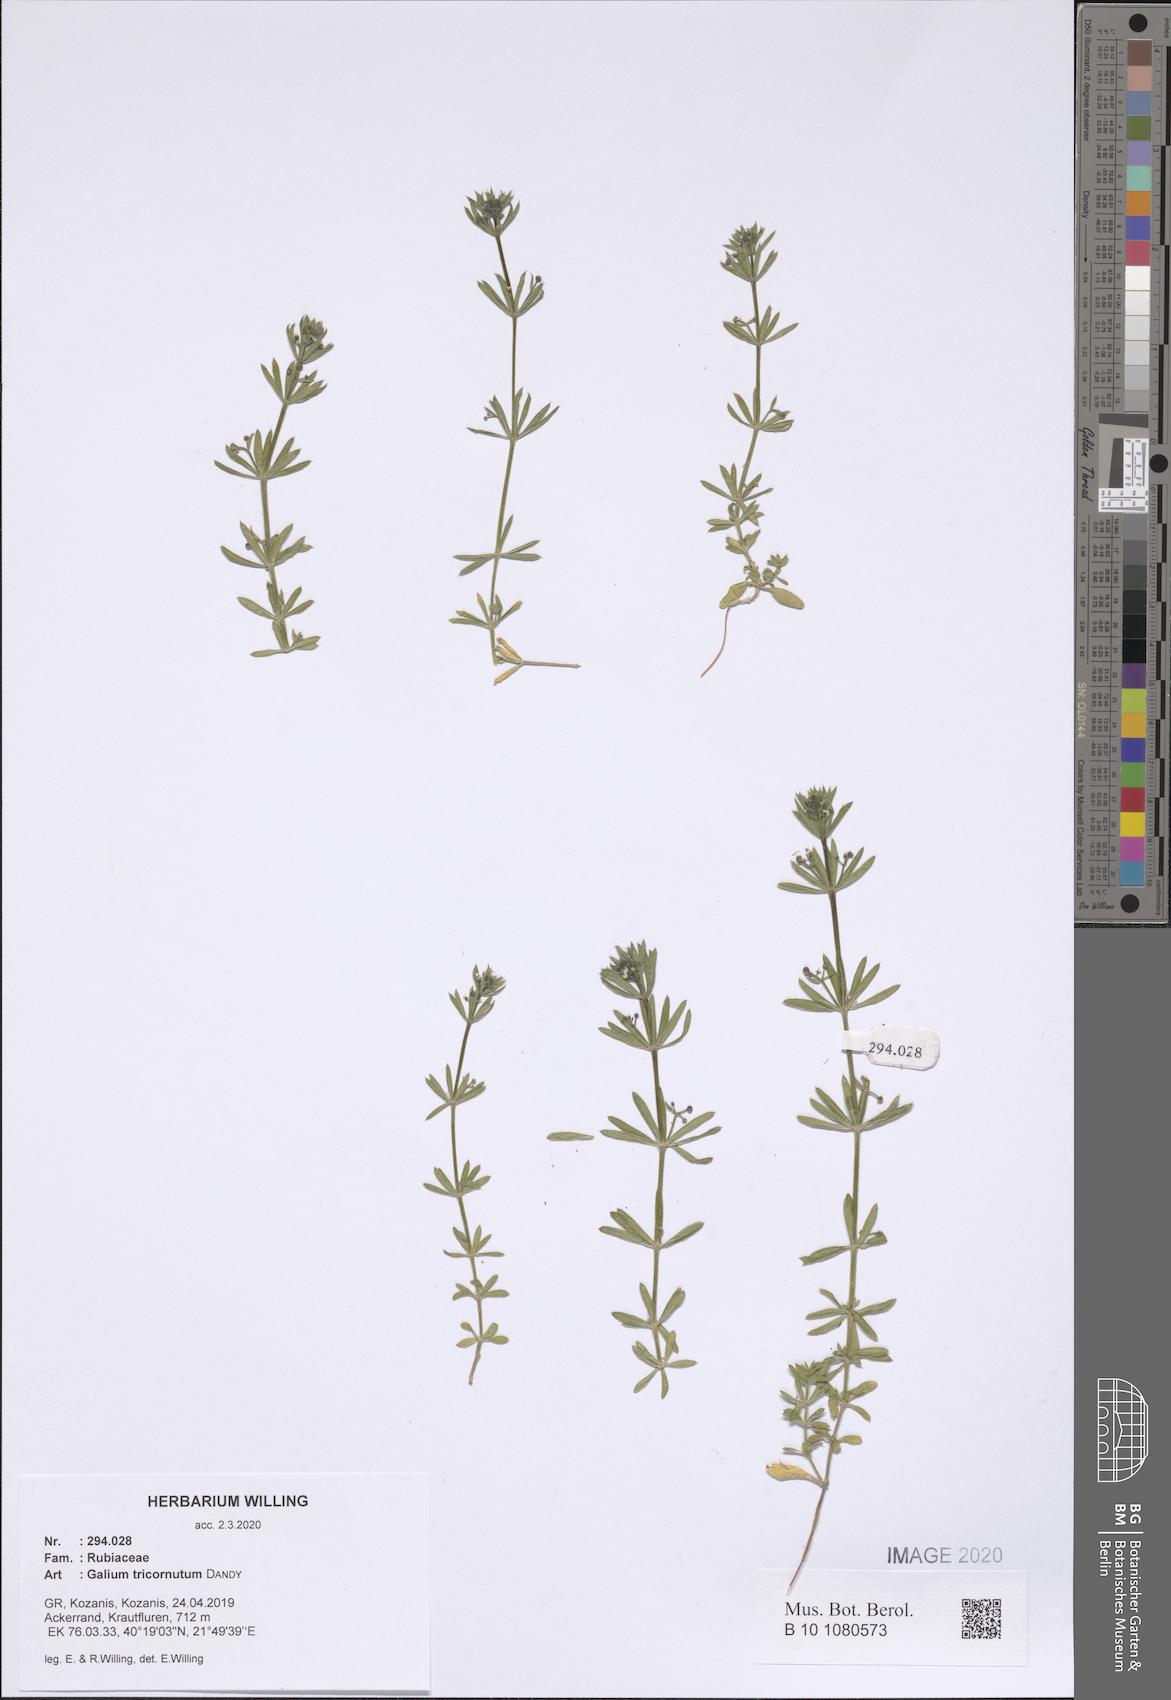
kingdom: Plantae
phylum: Tracheophyta
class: Magnoliopsida
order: Gentianales
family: Rubiaceae
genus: Galium
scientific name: Galium tricornutum
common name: Corn cleavers
